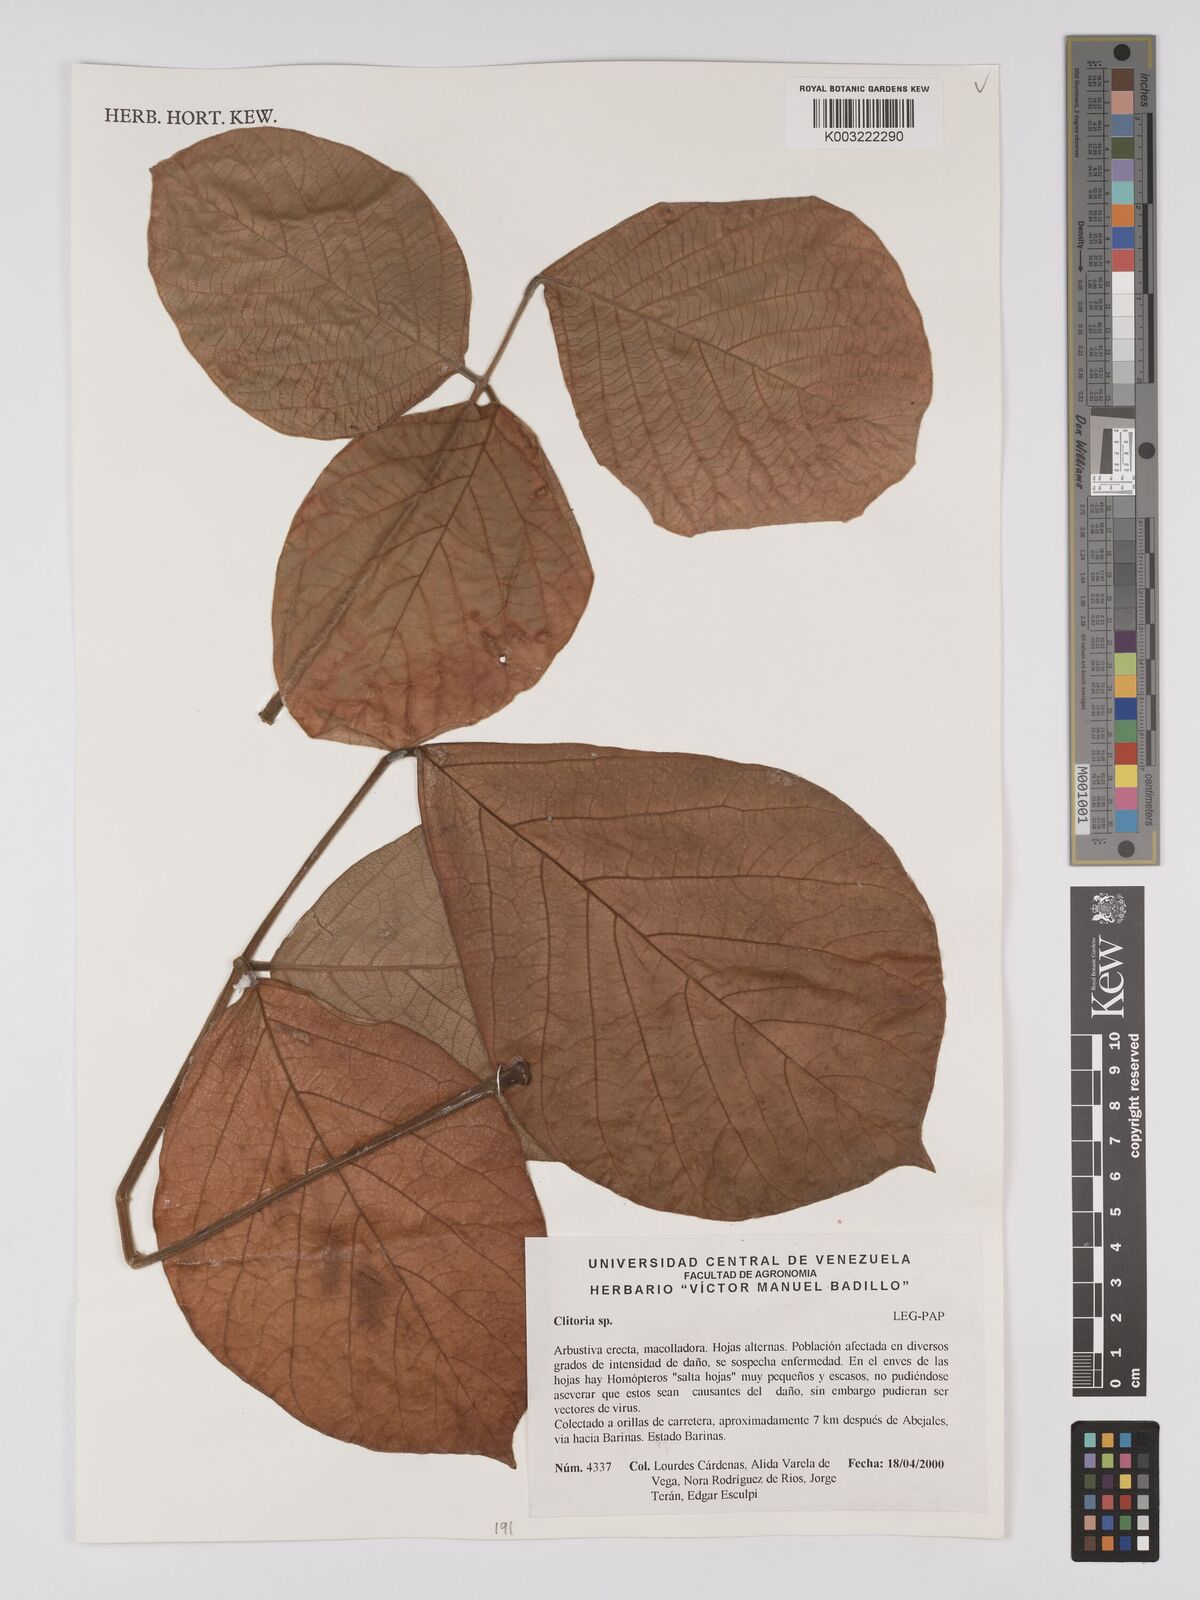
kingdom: Plantae
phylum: Tracheophyta
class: Magnoliopsida
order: Fabales
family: Fabaceae
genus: Clitoria
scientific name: Clitoria
